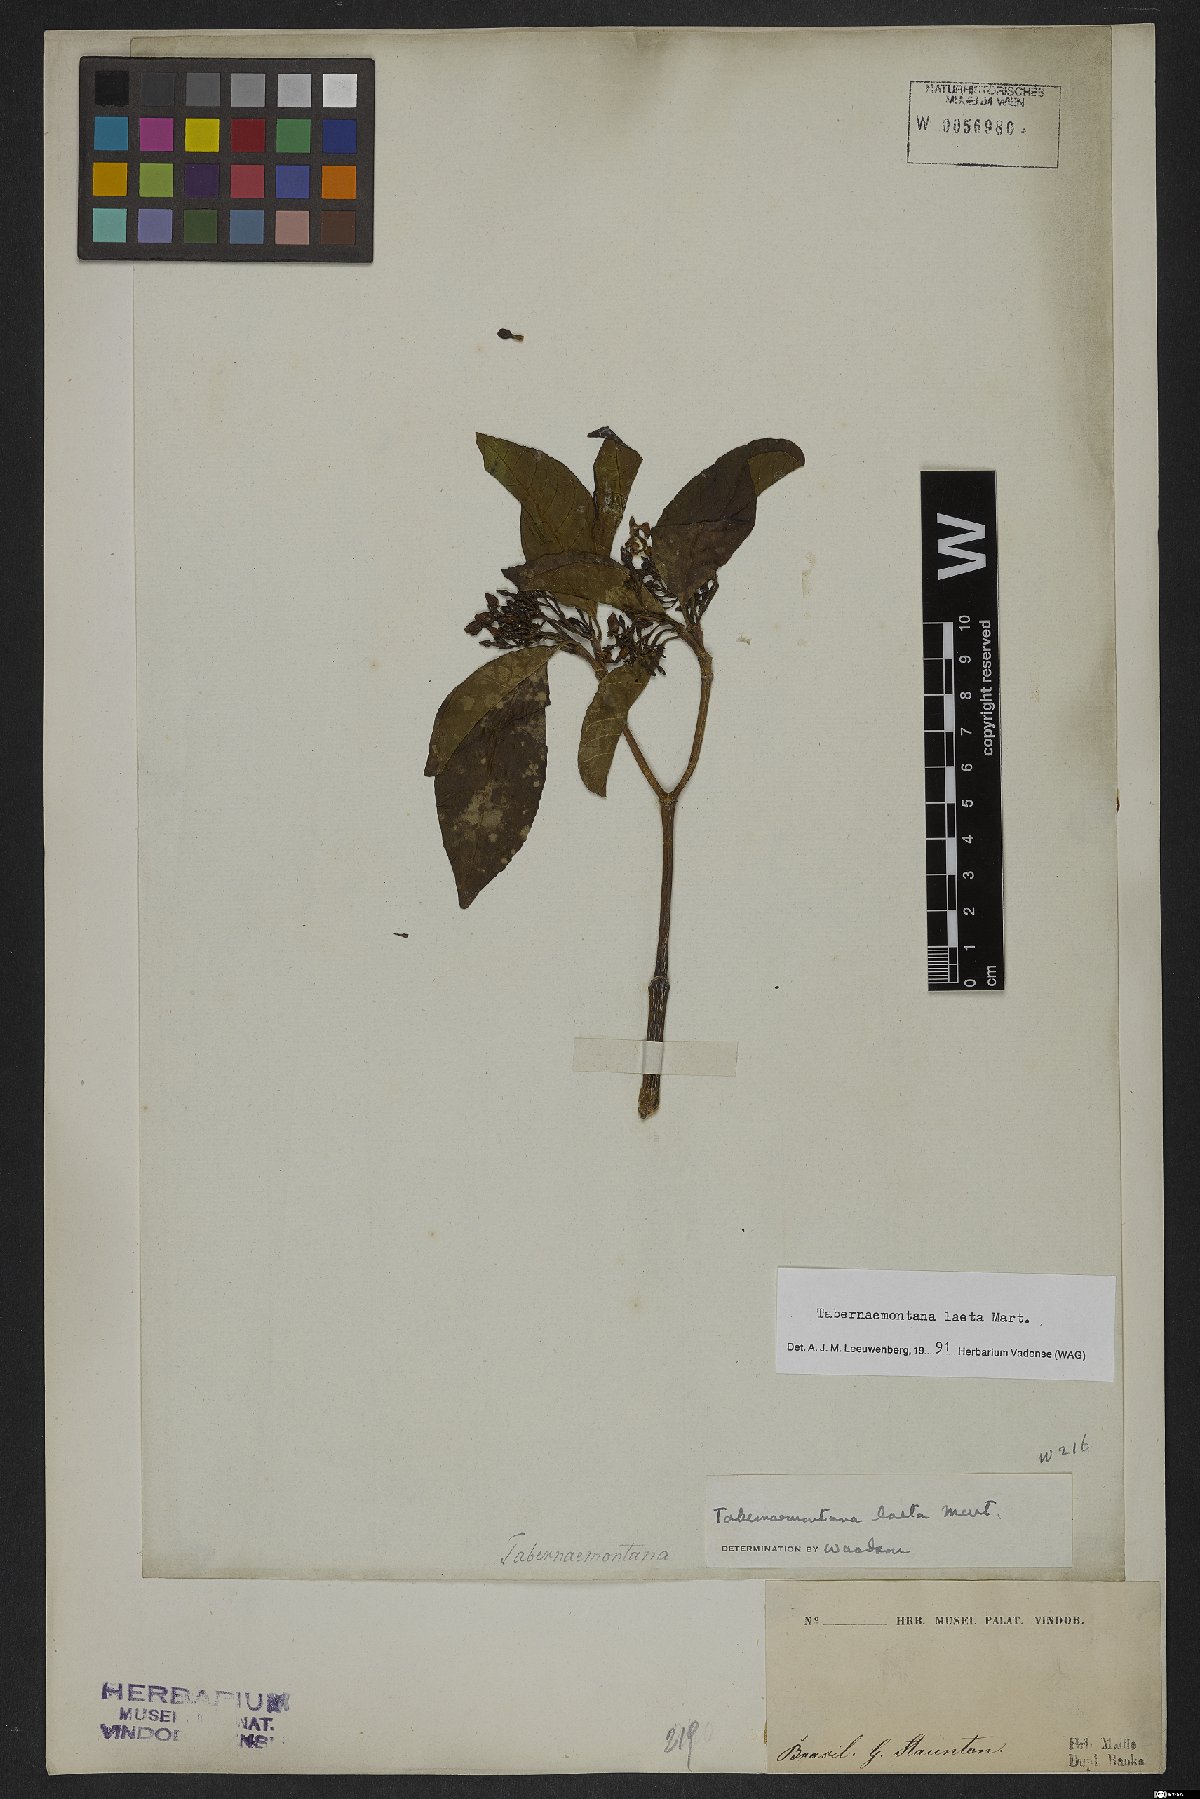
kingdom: Plantae
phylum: Tracheophyta
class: Magnoliopsida
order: Gentianales
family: Apocynaceae
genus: Tabernaemontana
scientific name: Tabernaemontana laeta
